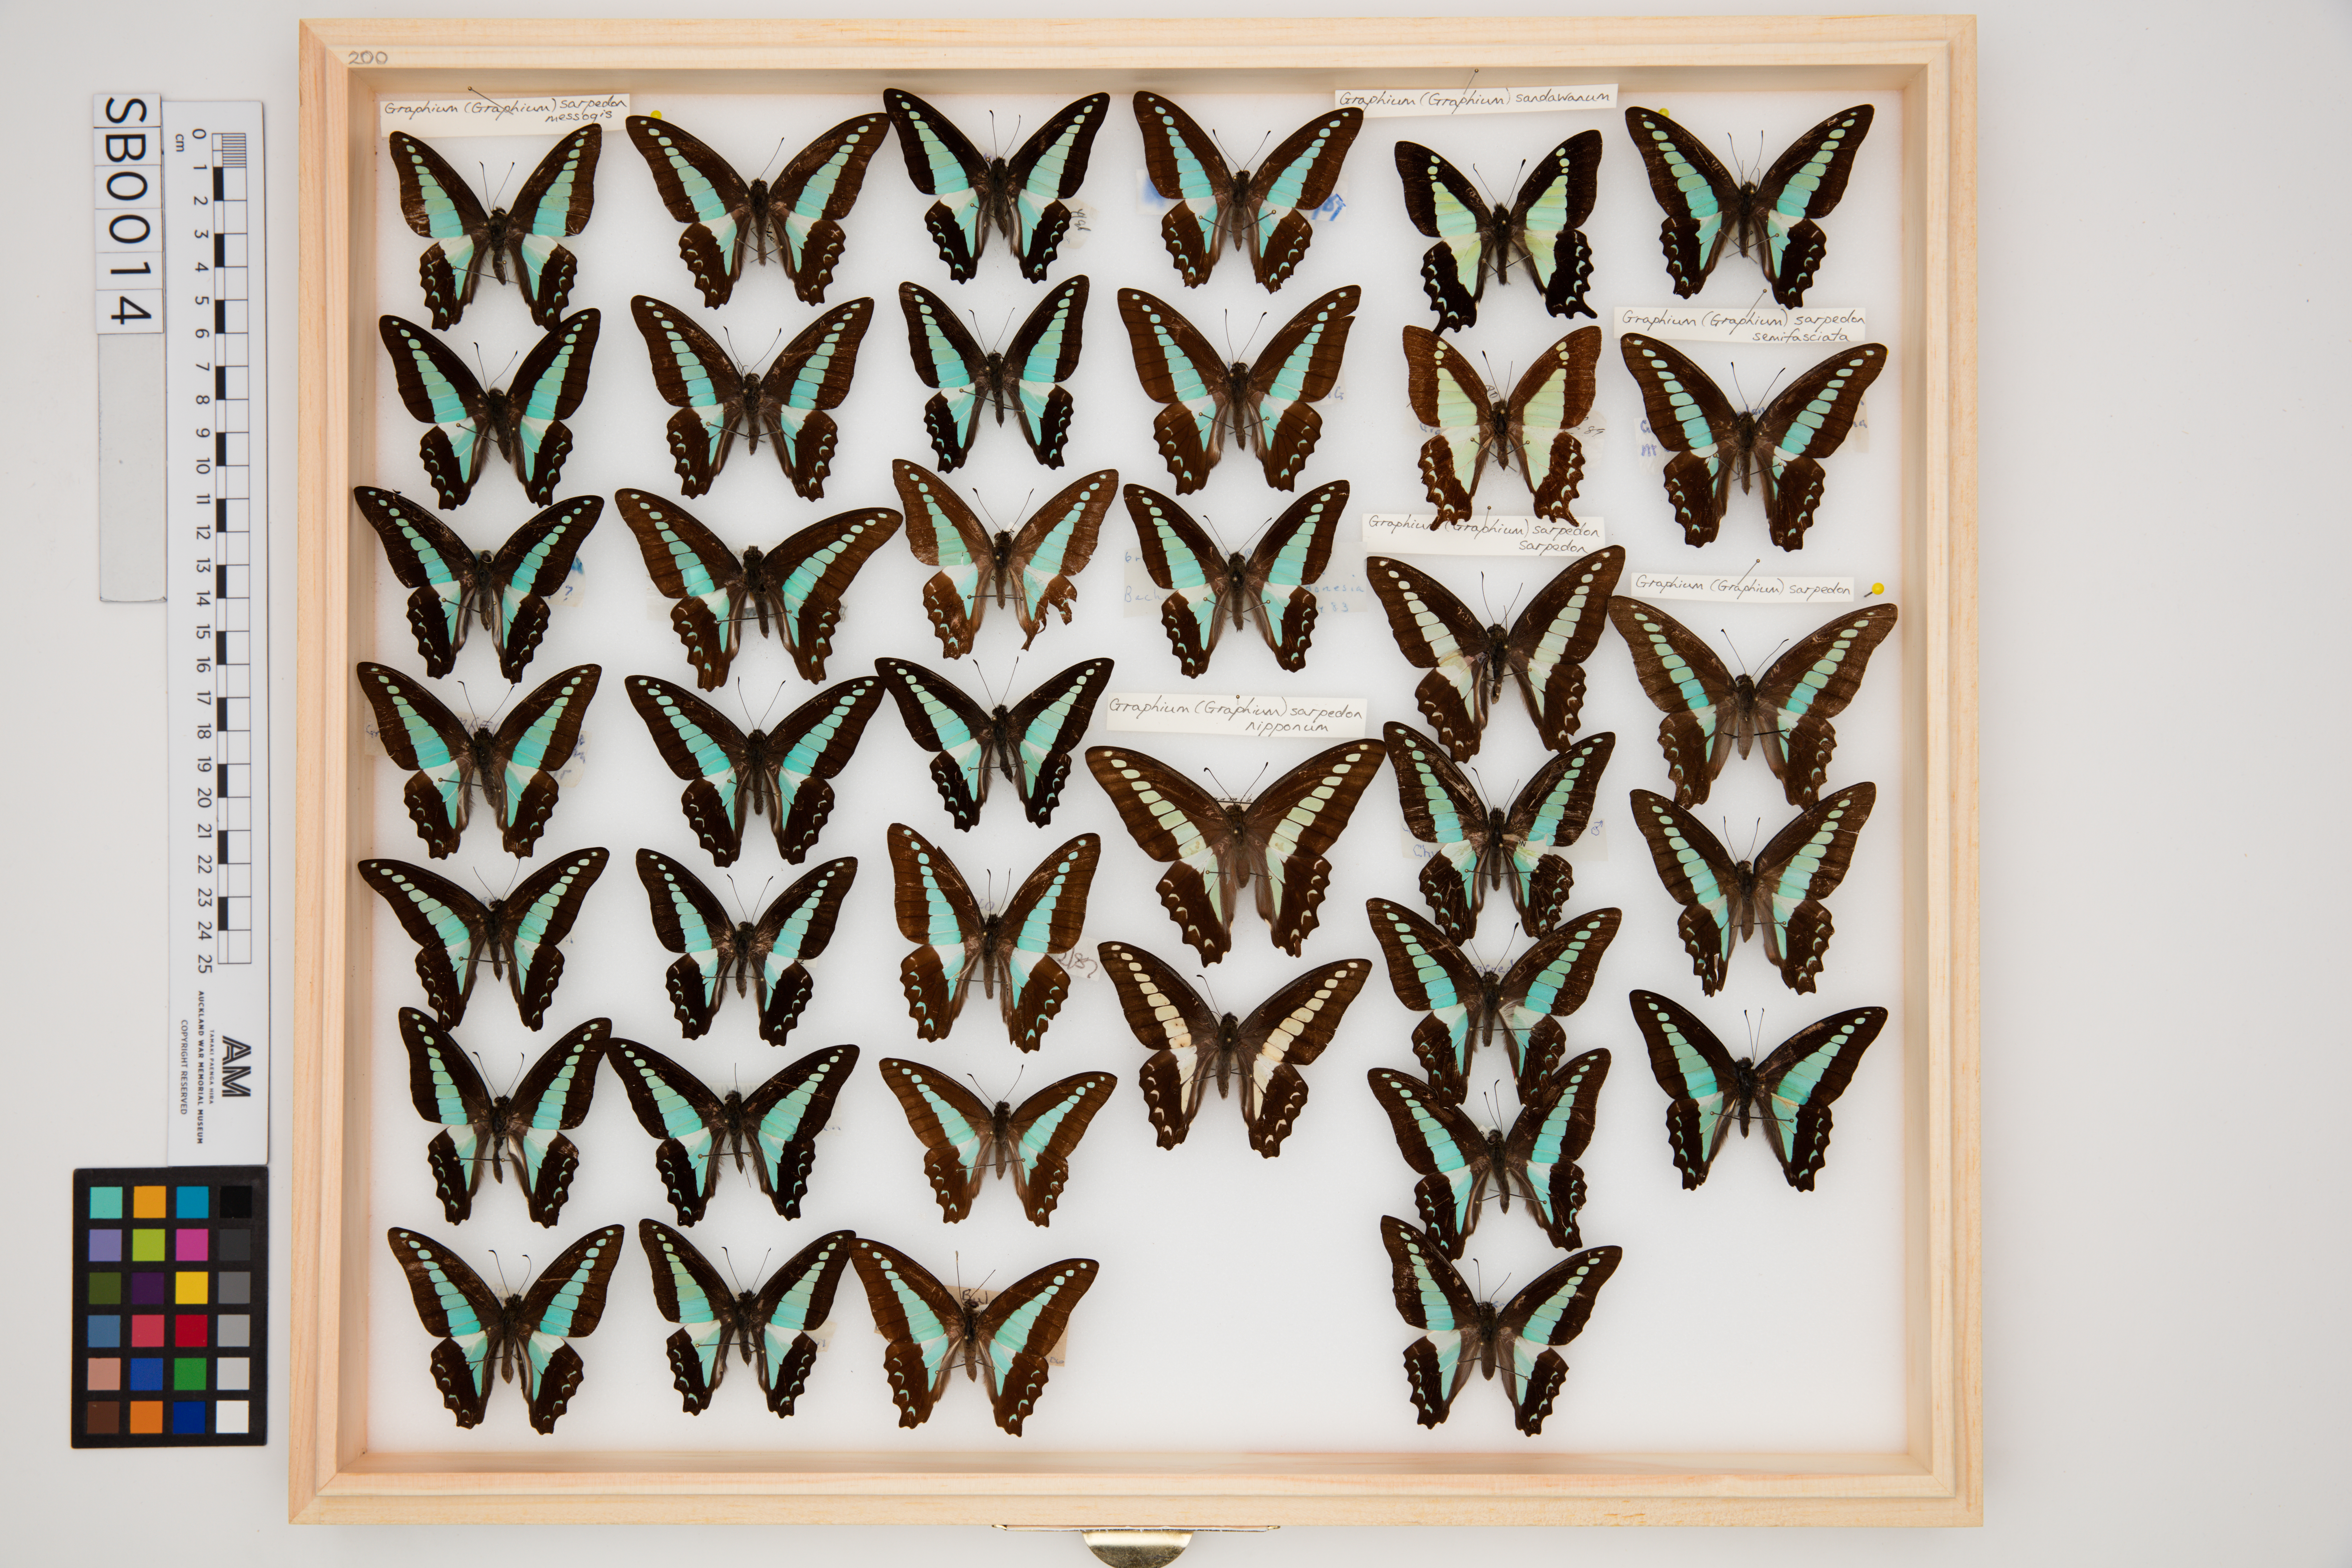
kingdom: Fungi
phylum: Ascomycota
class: Sordariomycetes
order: Microascales
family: Microascaceae
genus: Graphium
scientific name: Graphium sarpedon
